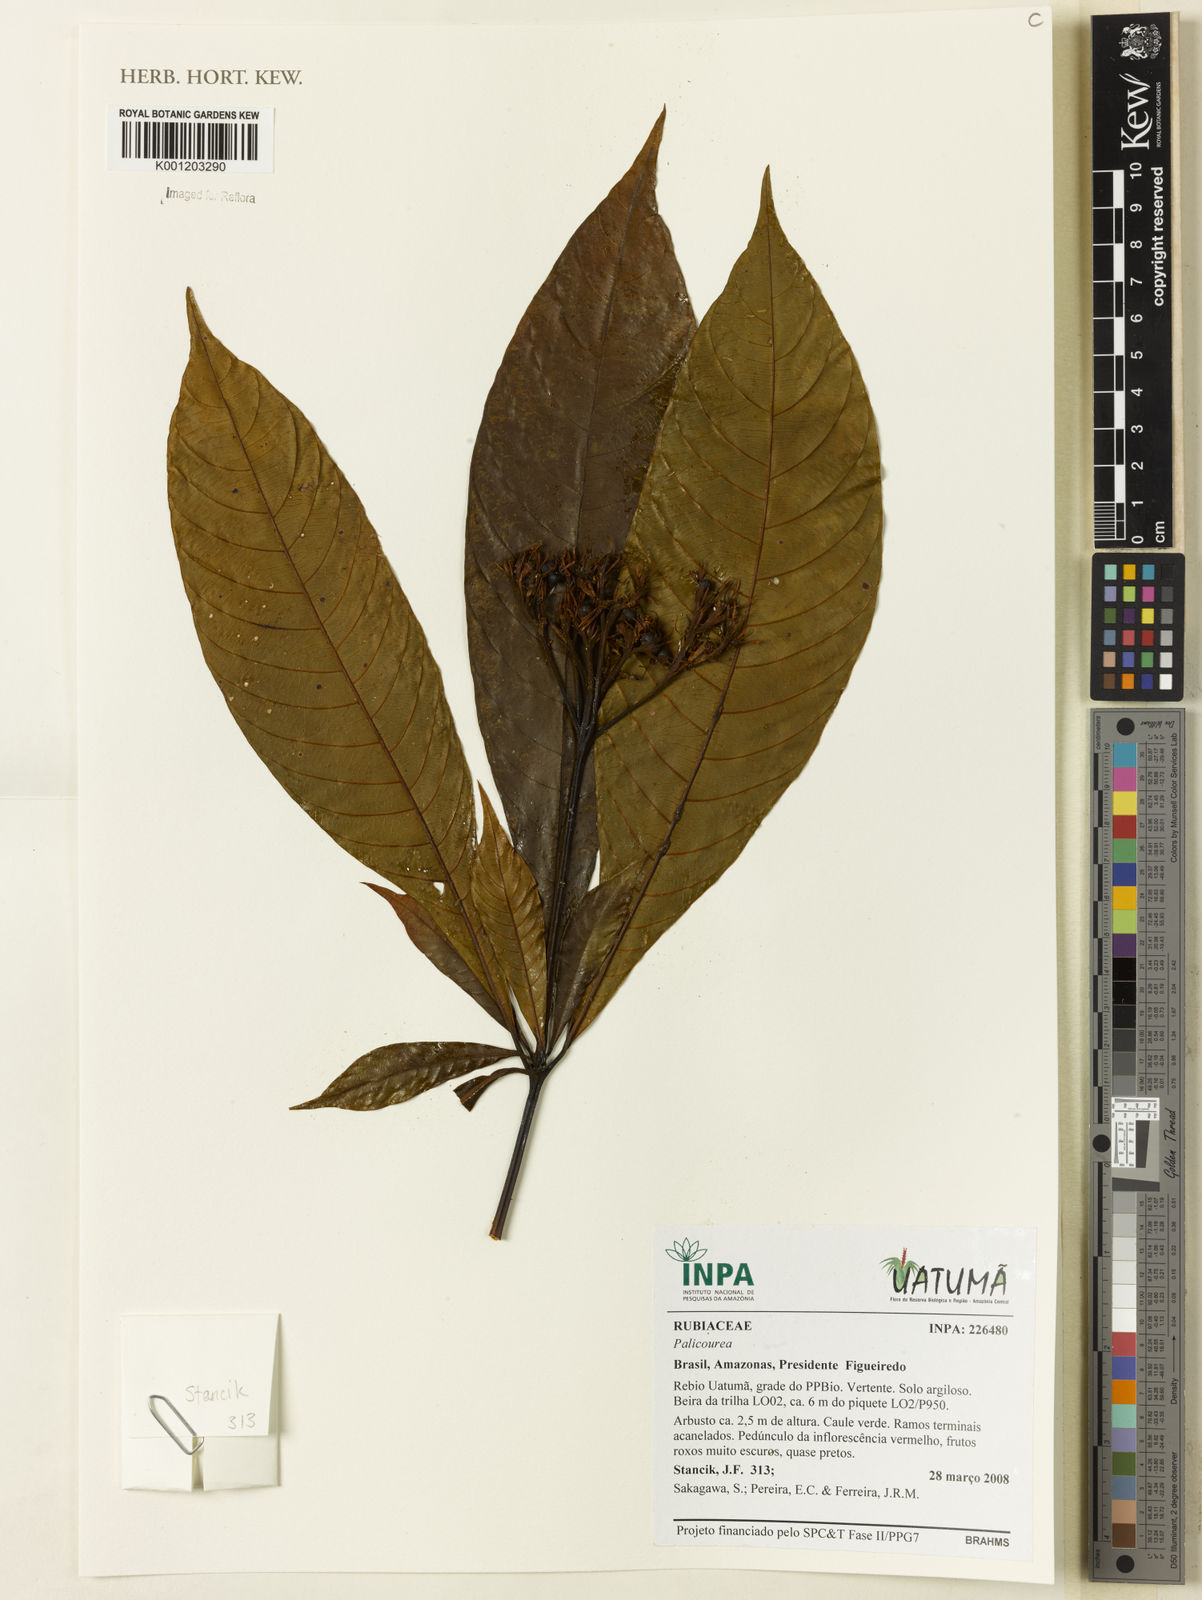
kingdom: Plantae
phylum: Tracheophyta
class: Magnoliopsida
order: Gentianales
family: Rubiaceae
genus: Palicourea
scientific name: Palicourea
